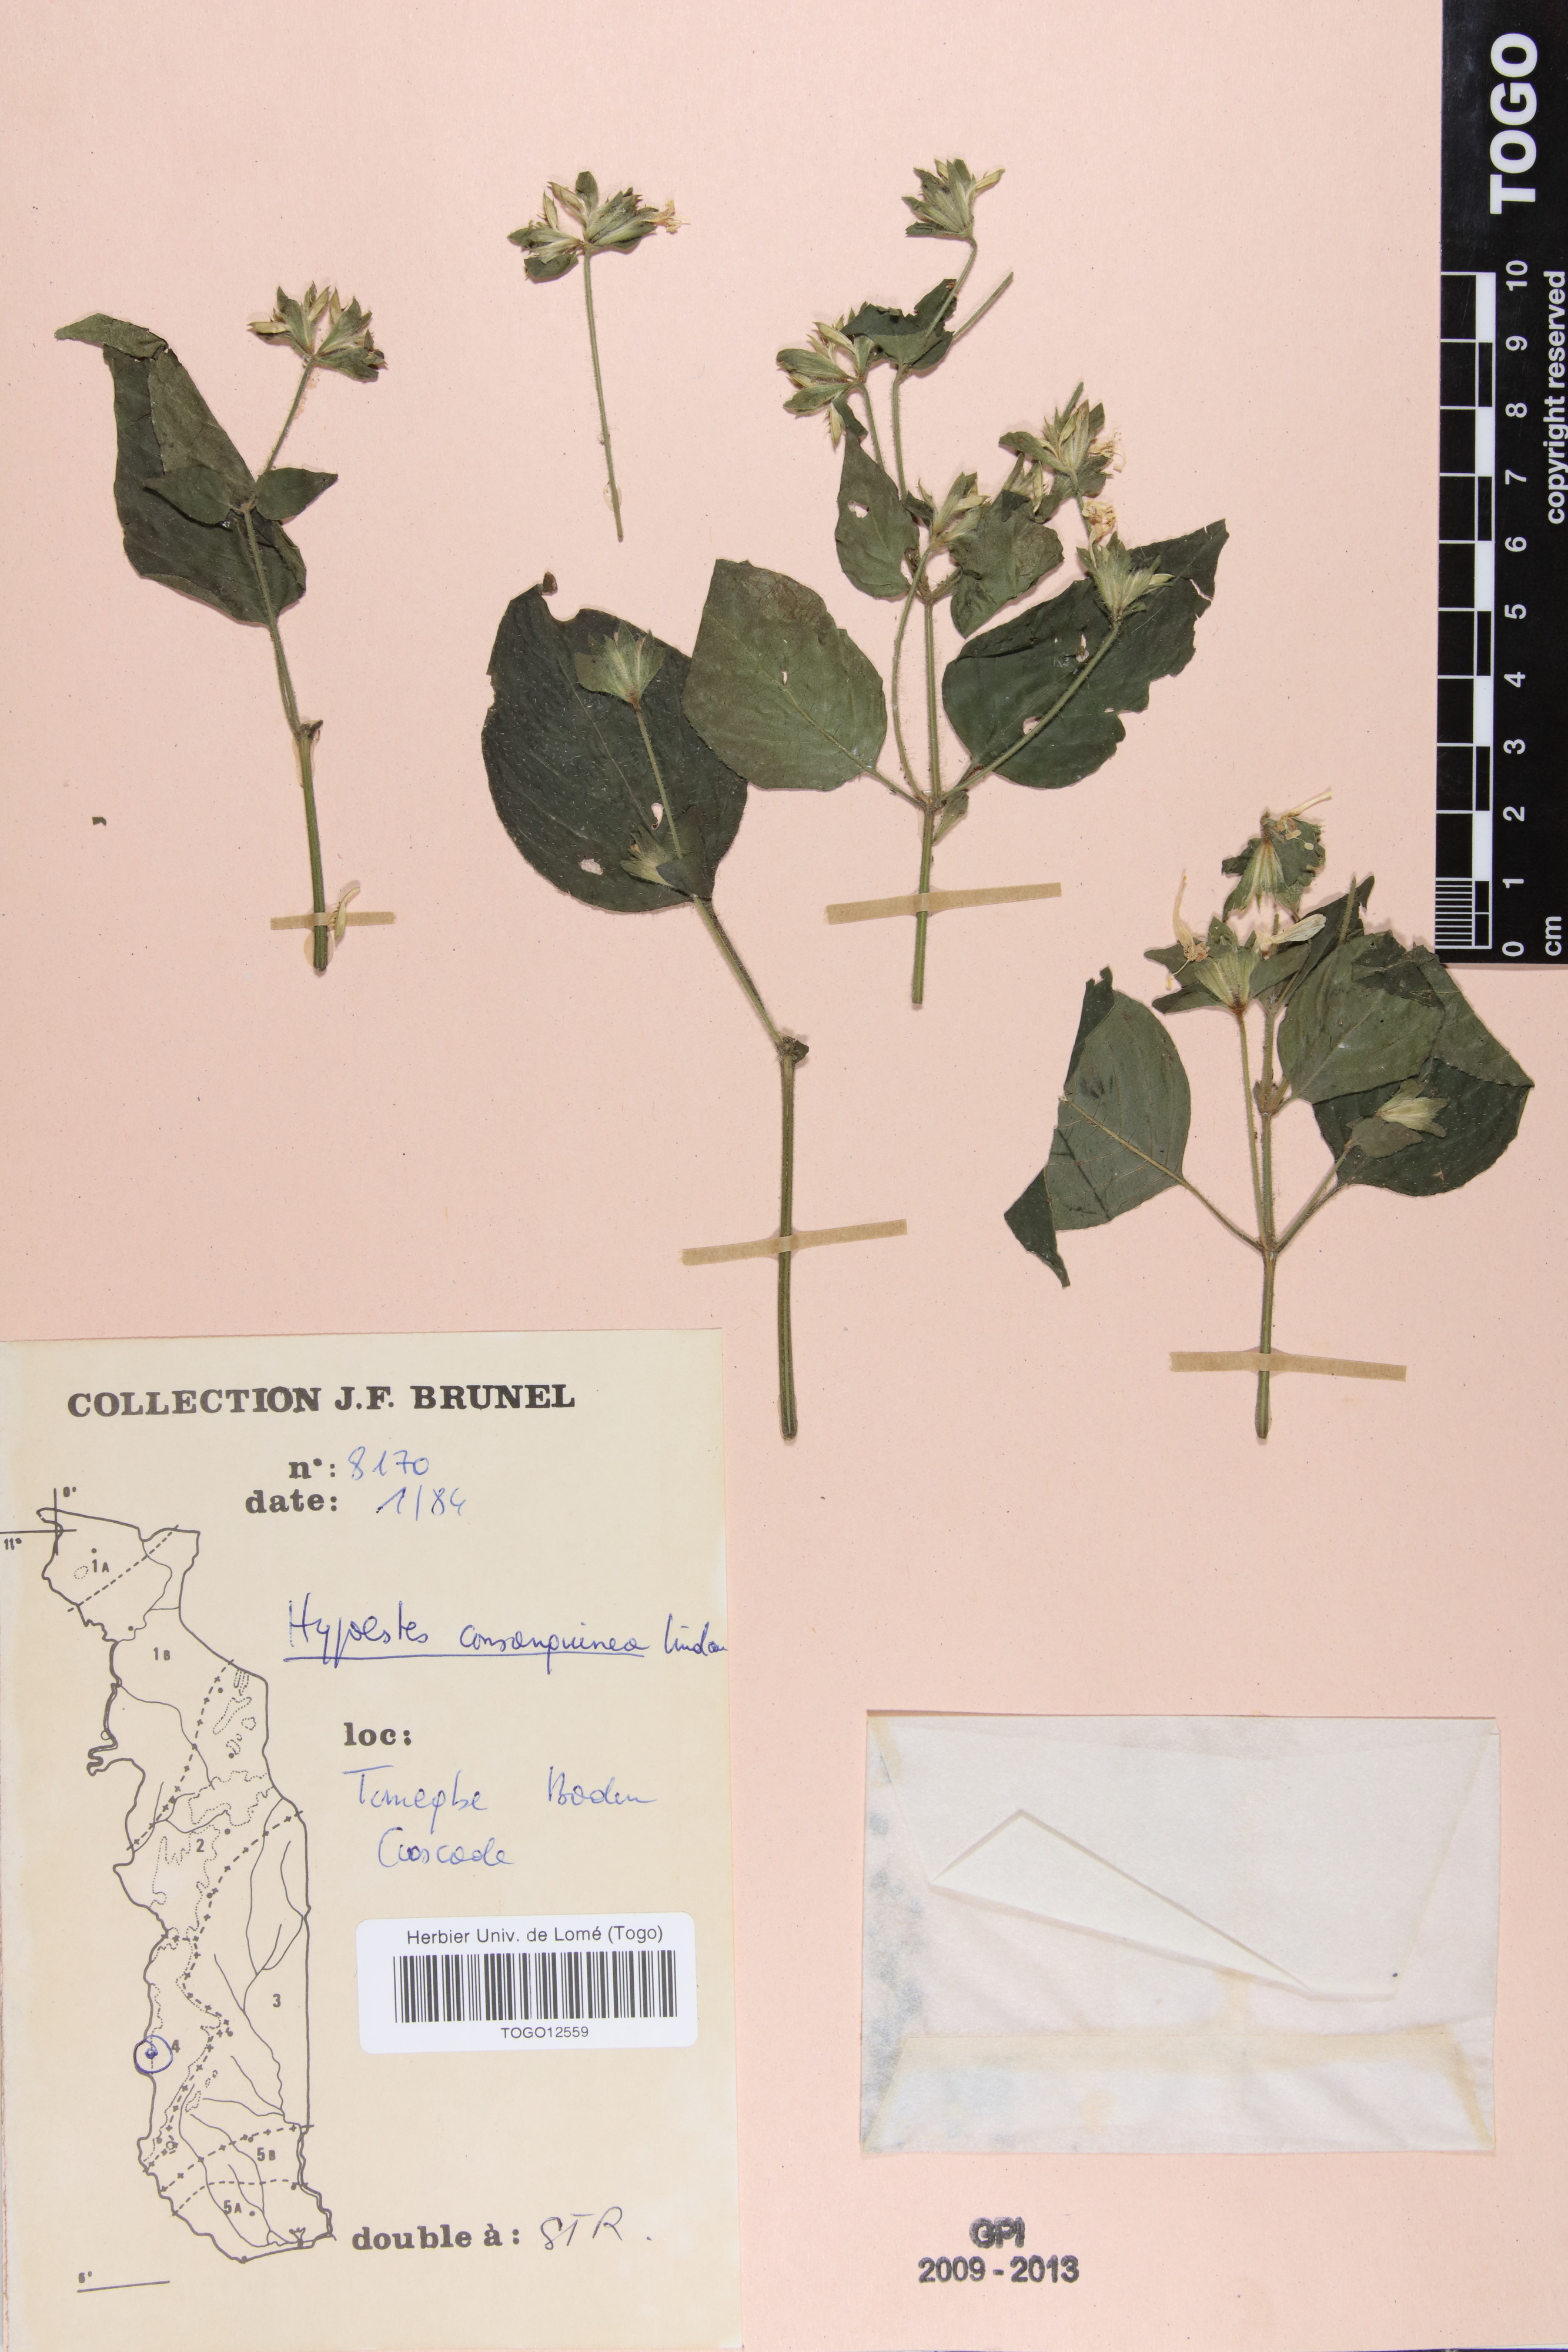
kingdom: Plantae
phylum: Tracheophyta
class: Magnoliopsida
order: Lamiales
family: Acanthaceae
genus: Hypoestes
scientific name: Hypoestes triflora
